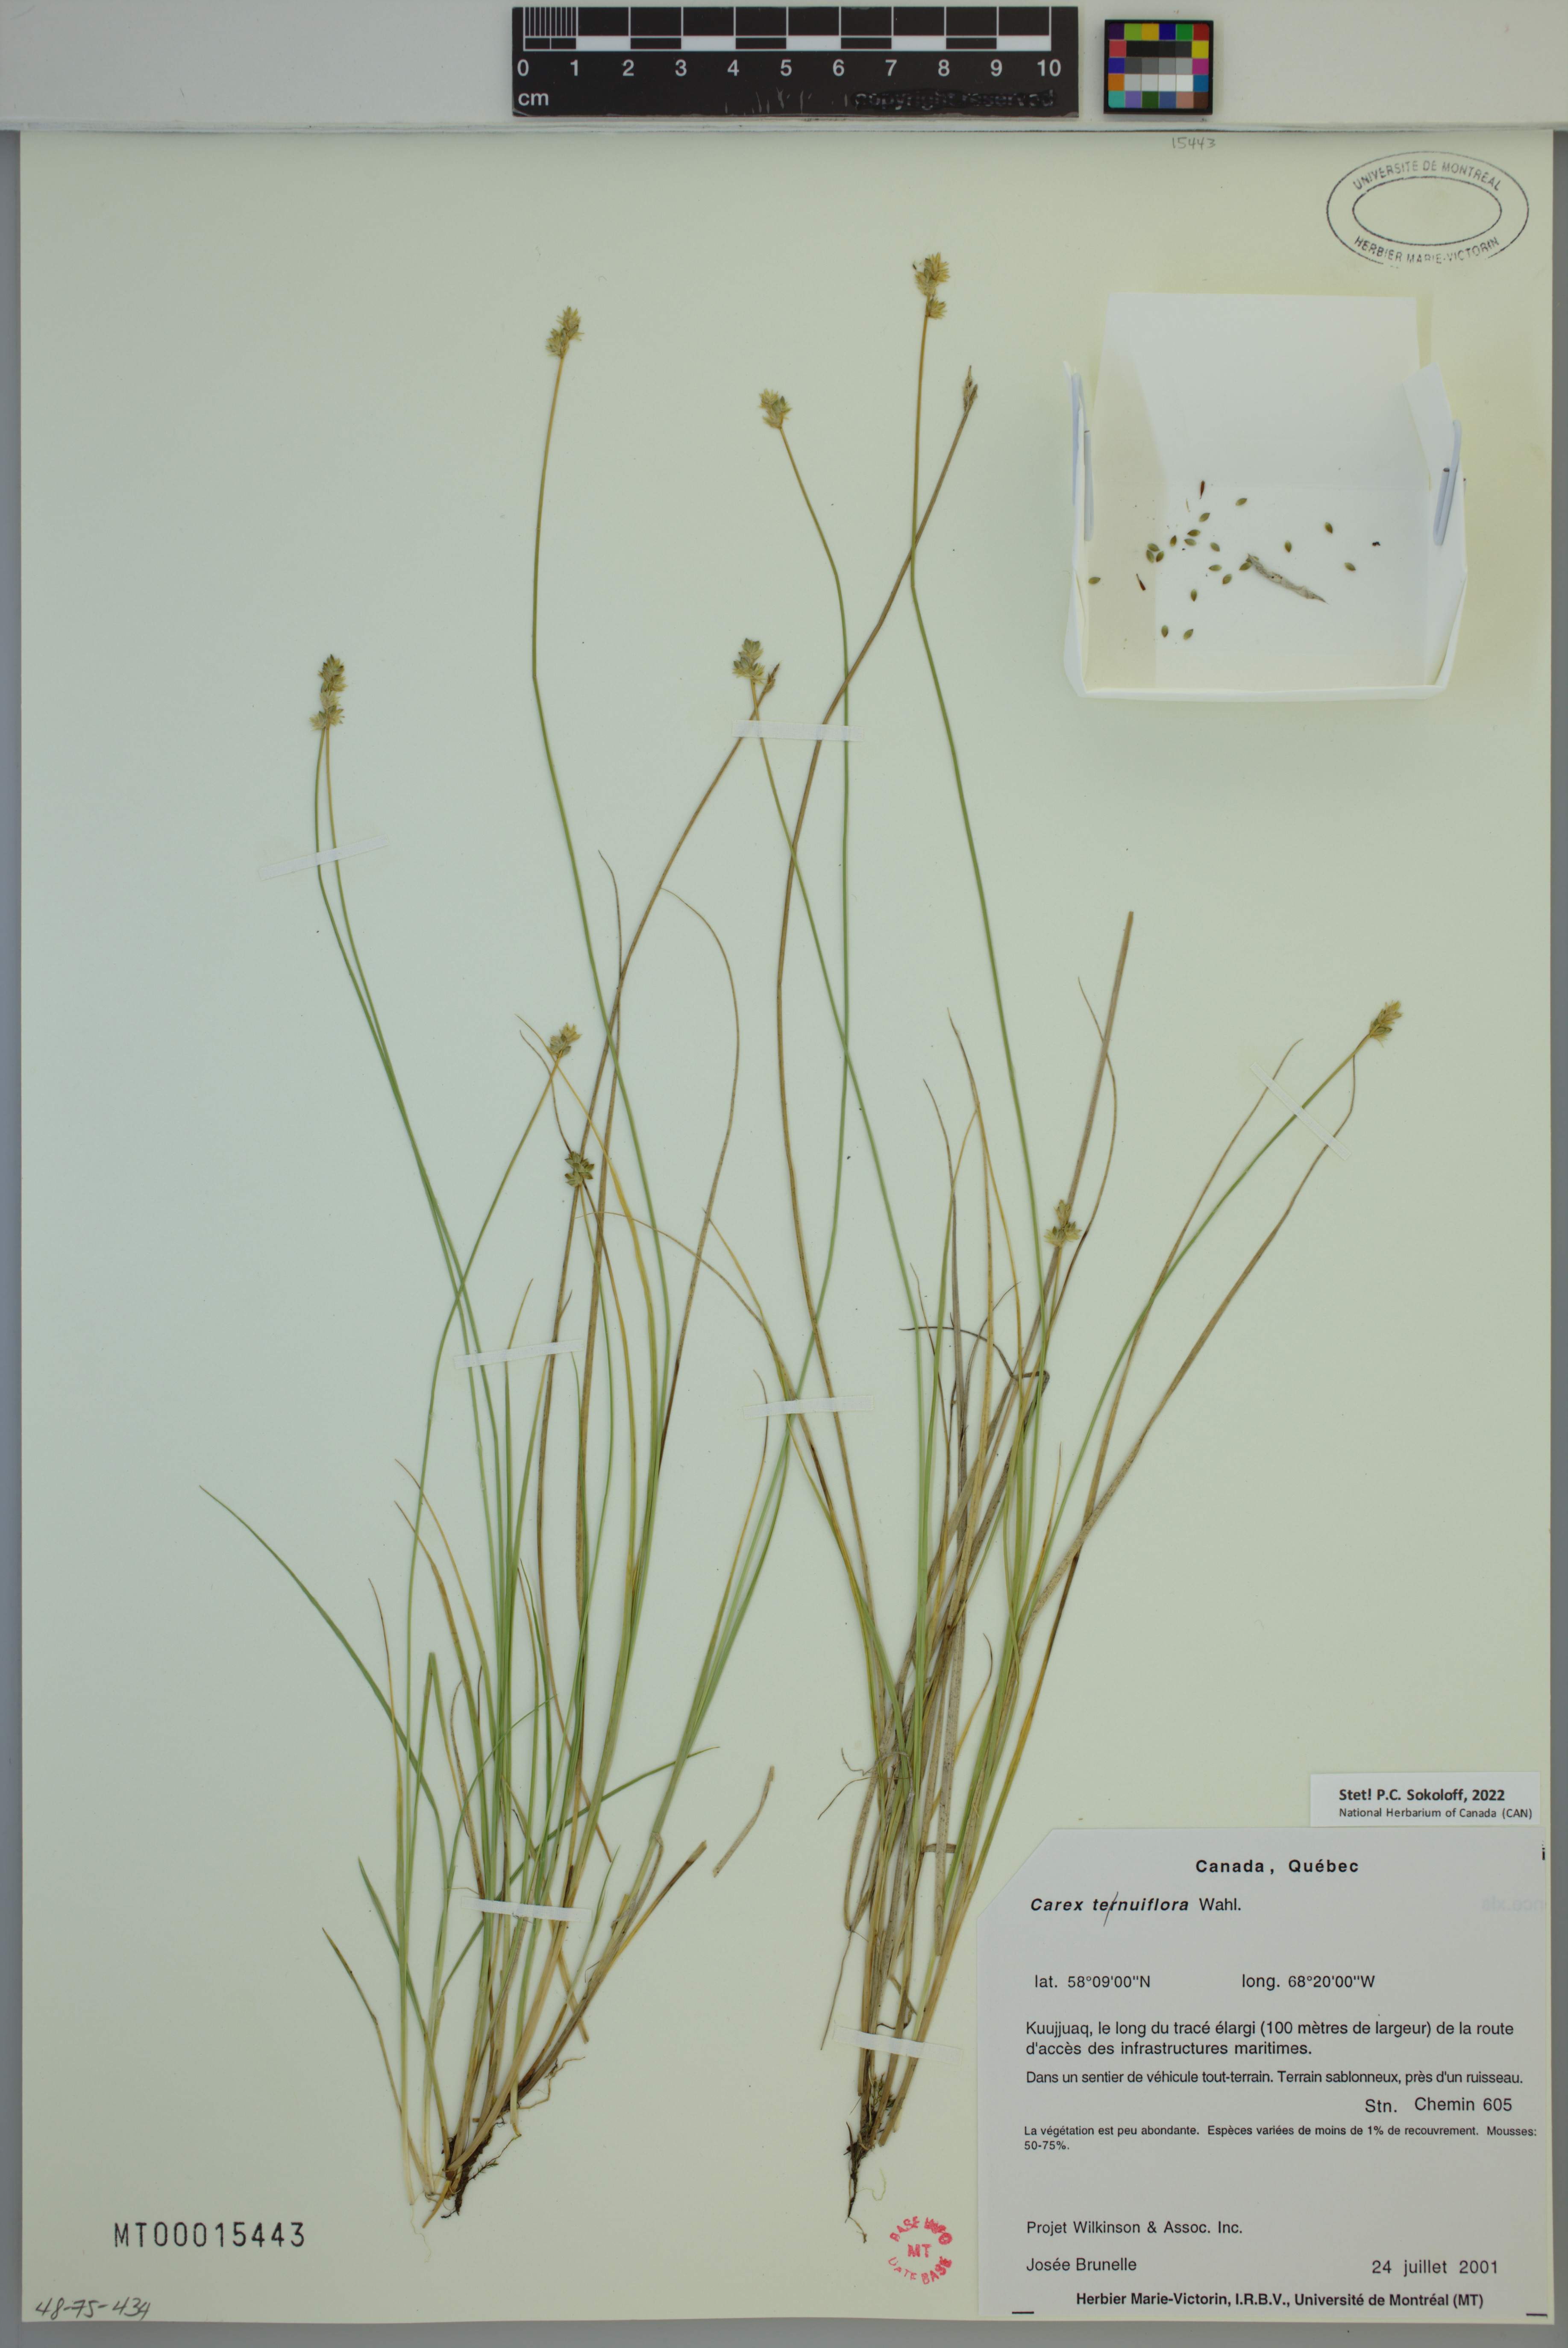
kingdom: Plantae
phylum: Tracheophyta
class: Liliopsida
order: Poales
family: Cyperaceae
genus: Carex
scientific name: Carex tenuiflora
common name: Sparse-flowered sedge
